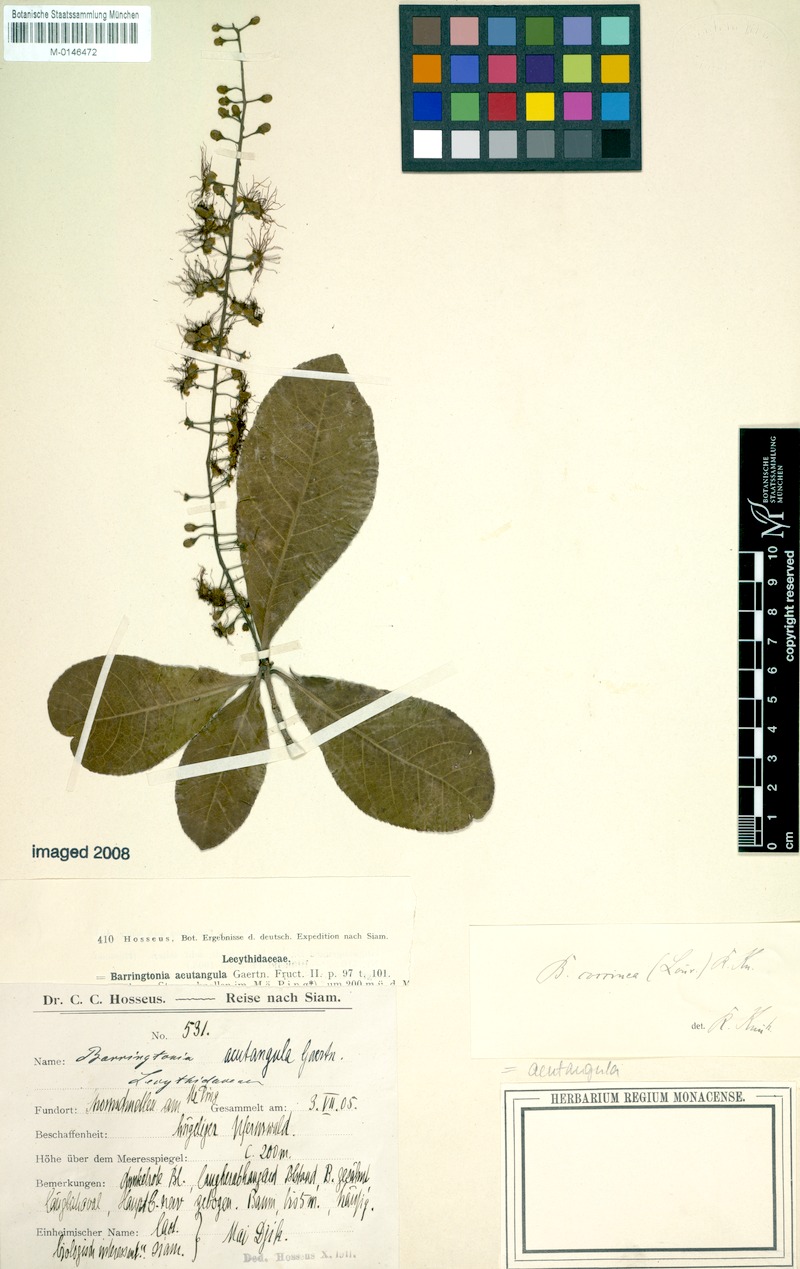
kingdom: Plantae
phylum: Tracheophyta
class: Magnoliopsida
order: Ericales
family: Lecythidaceae
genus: Barringtonia
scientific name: Barringtonia acutangula
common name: Freshwater mangrove
